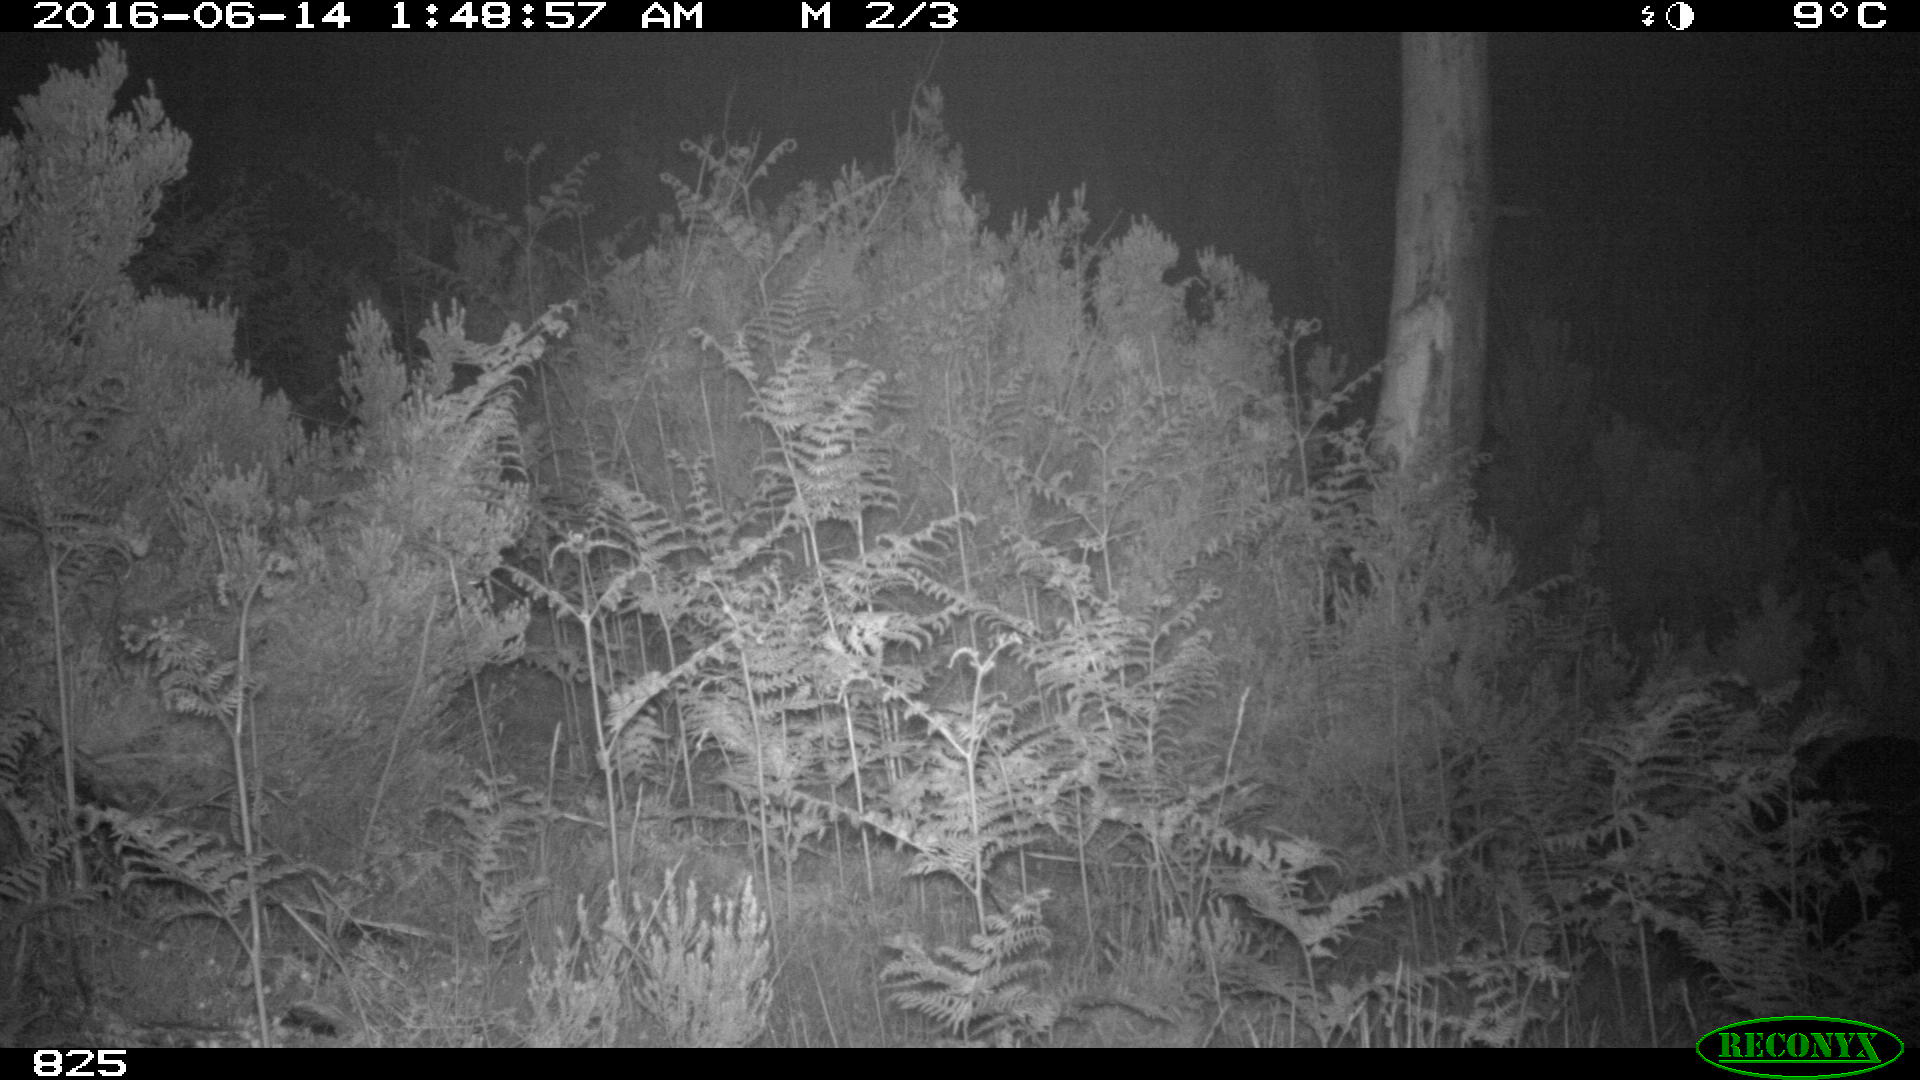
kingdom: Animalia
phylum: Chordata
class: Mammalia
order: Artiodactyla
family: Suidae
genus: Sus
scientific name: Sus scrofa
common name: Wild boar
